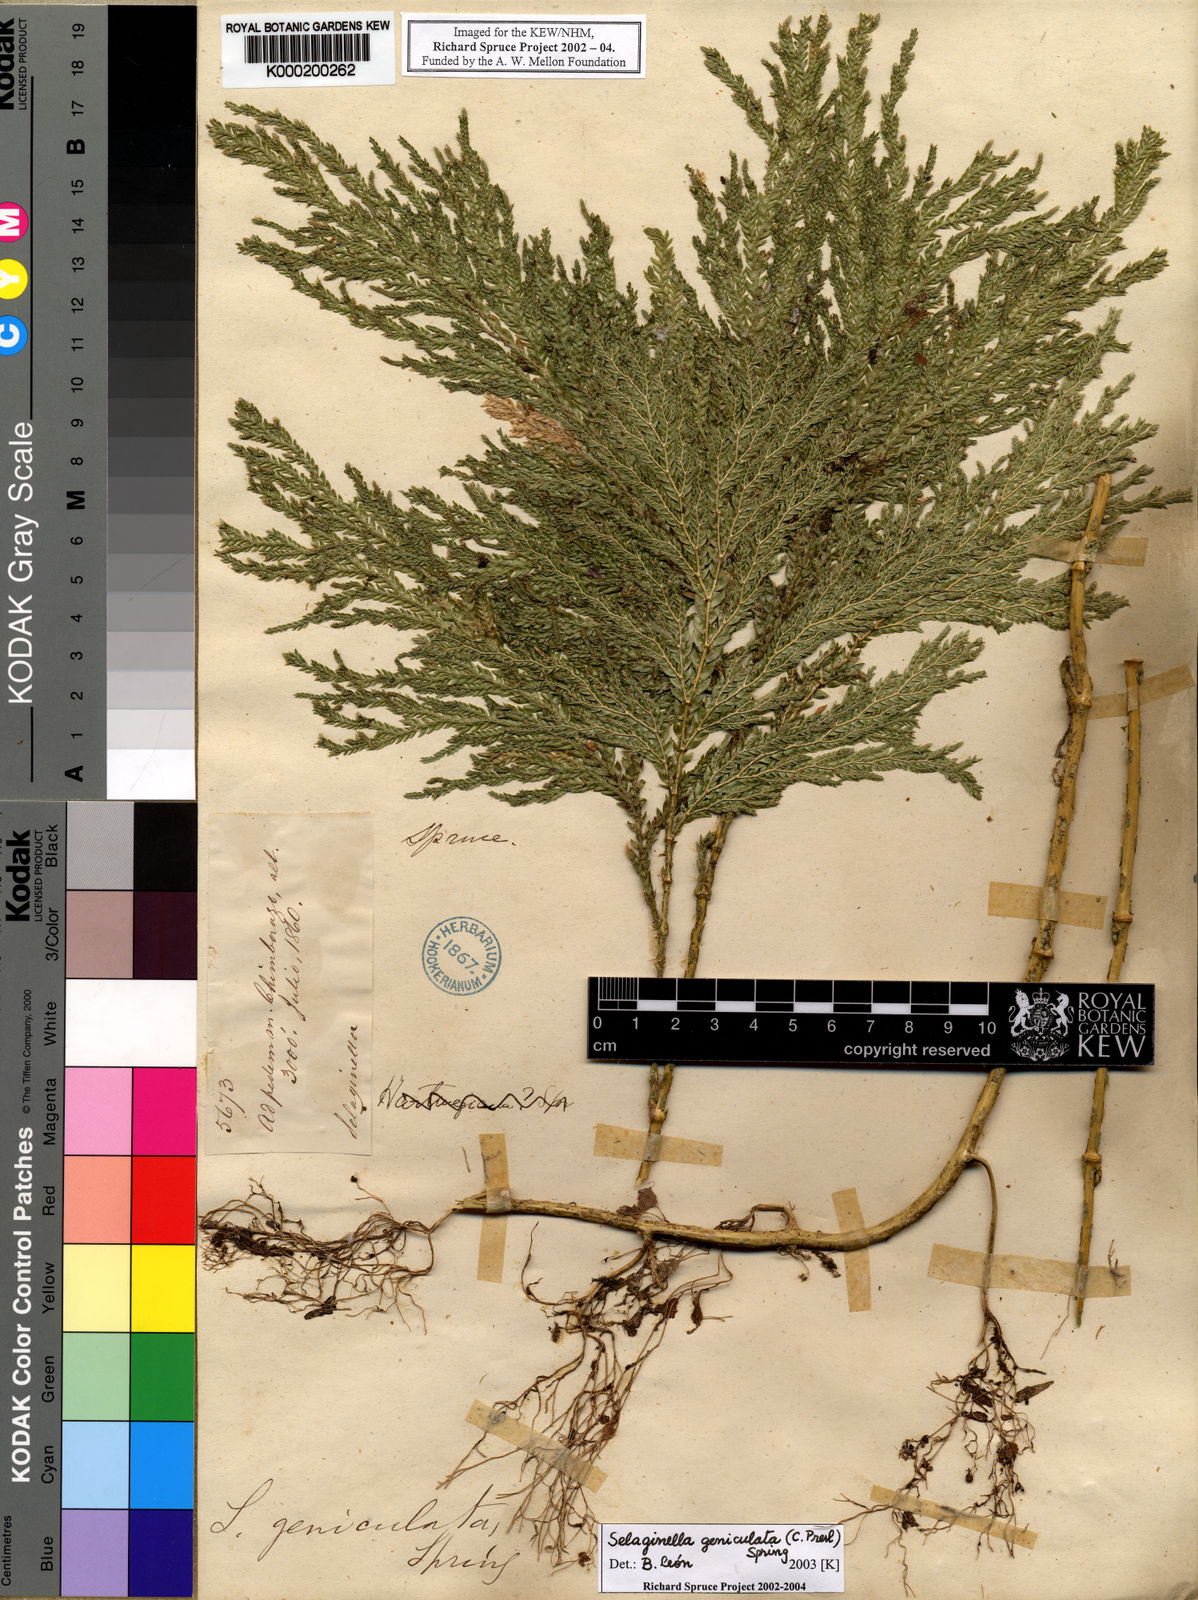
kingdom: Plantae
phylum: Tracheophyta
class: Lycopodiopsida
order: Selaginellales
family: Selaginellaceae
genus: Selaginella
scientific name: Selaginella geniculata
